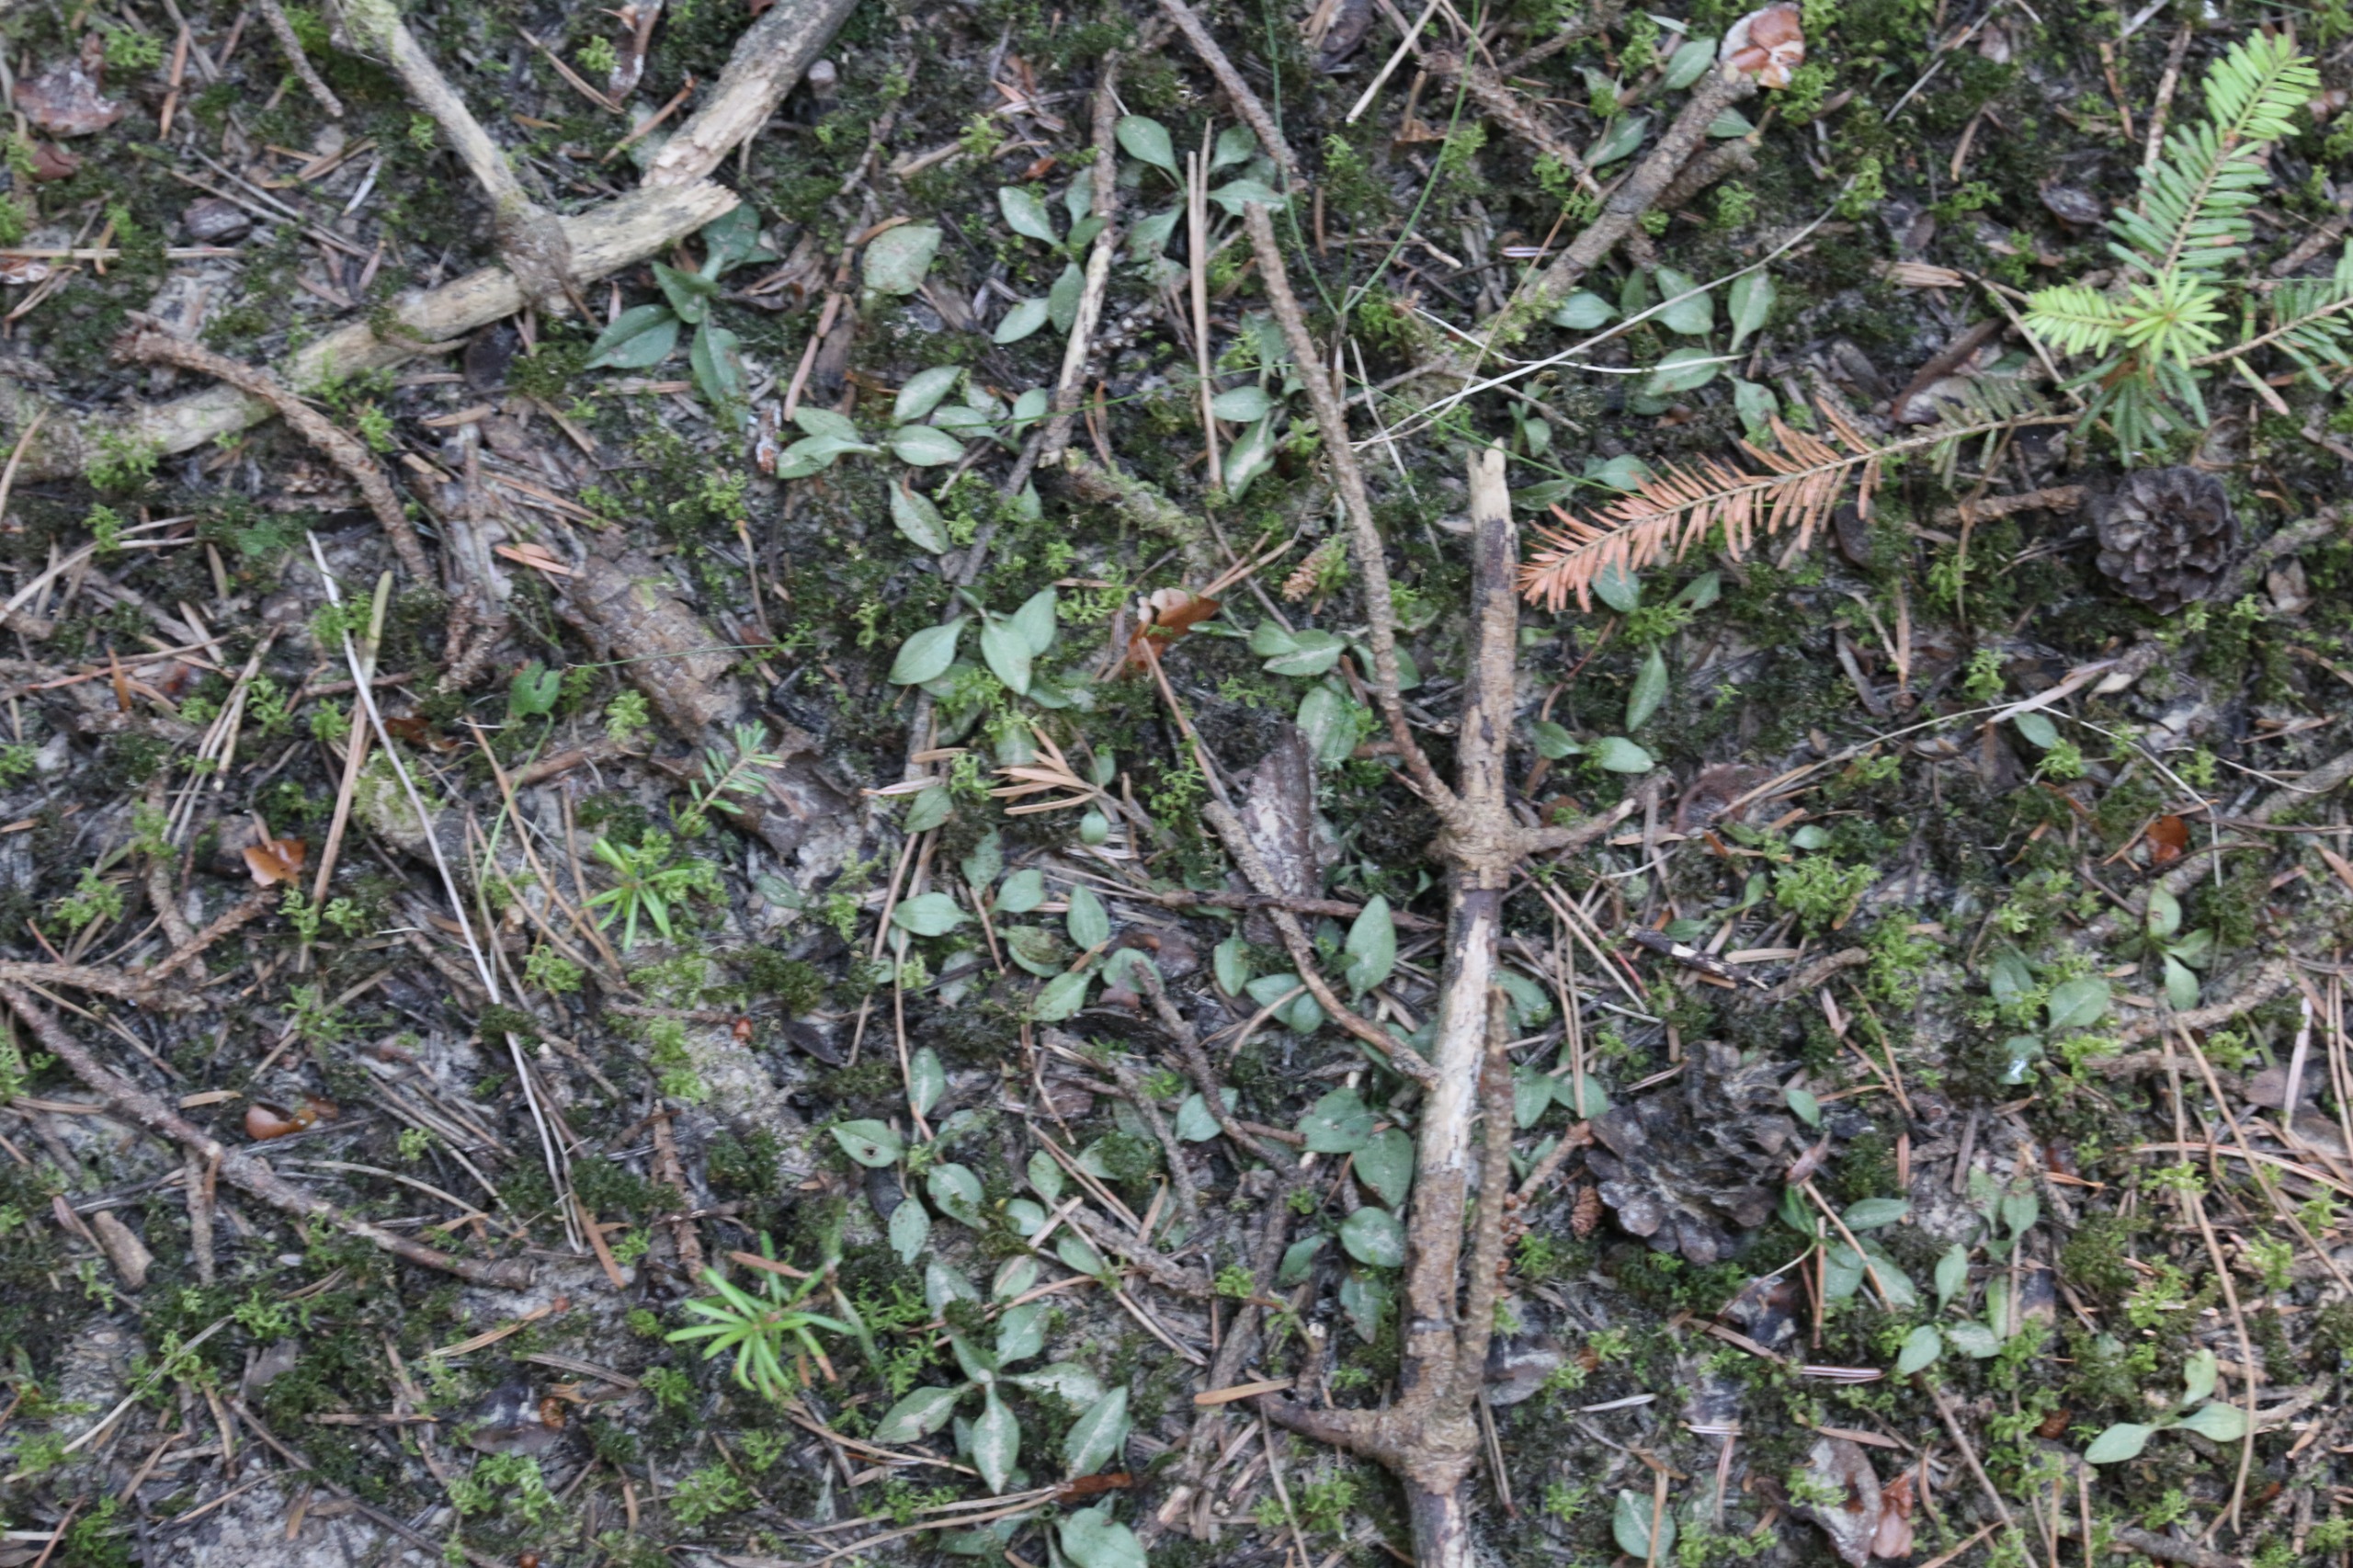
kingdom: Plantae
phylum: Tracheophyta
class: Liliopsida
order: Asparagales
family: Orchidaceae
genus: Goodyera
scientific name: Goodyera repens
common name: Knærod
